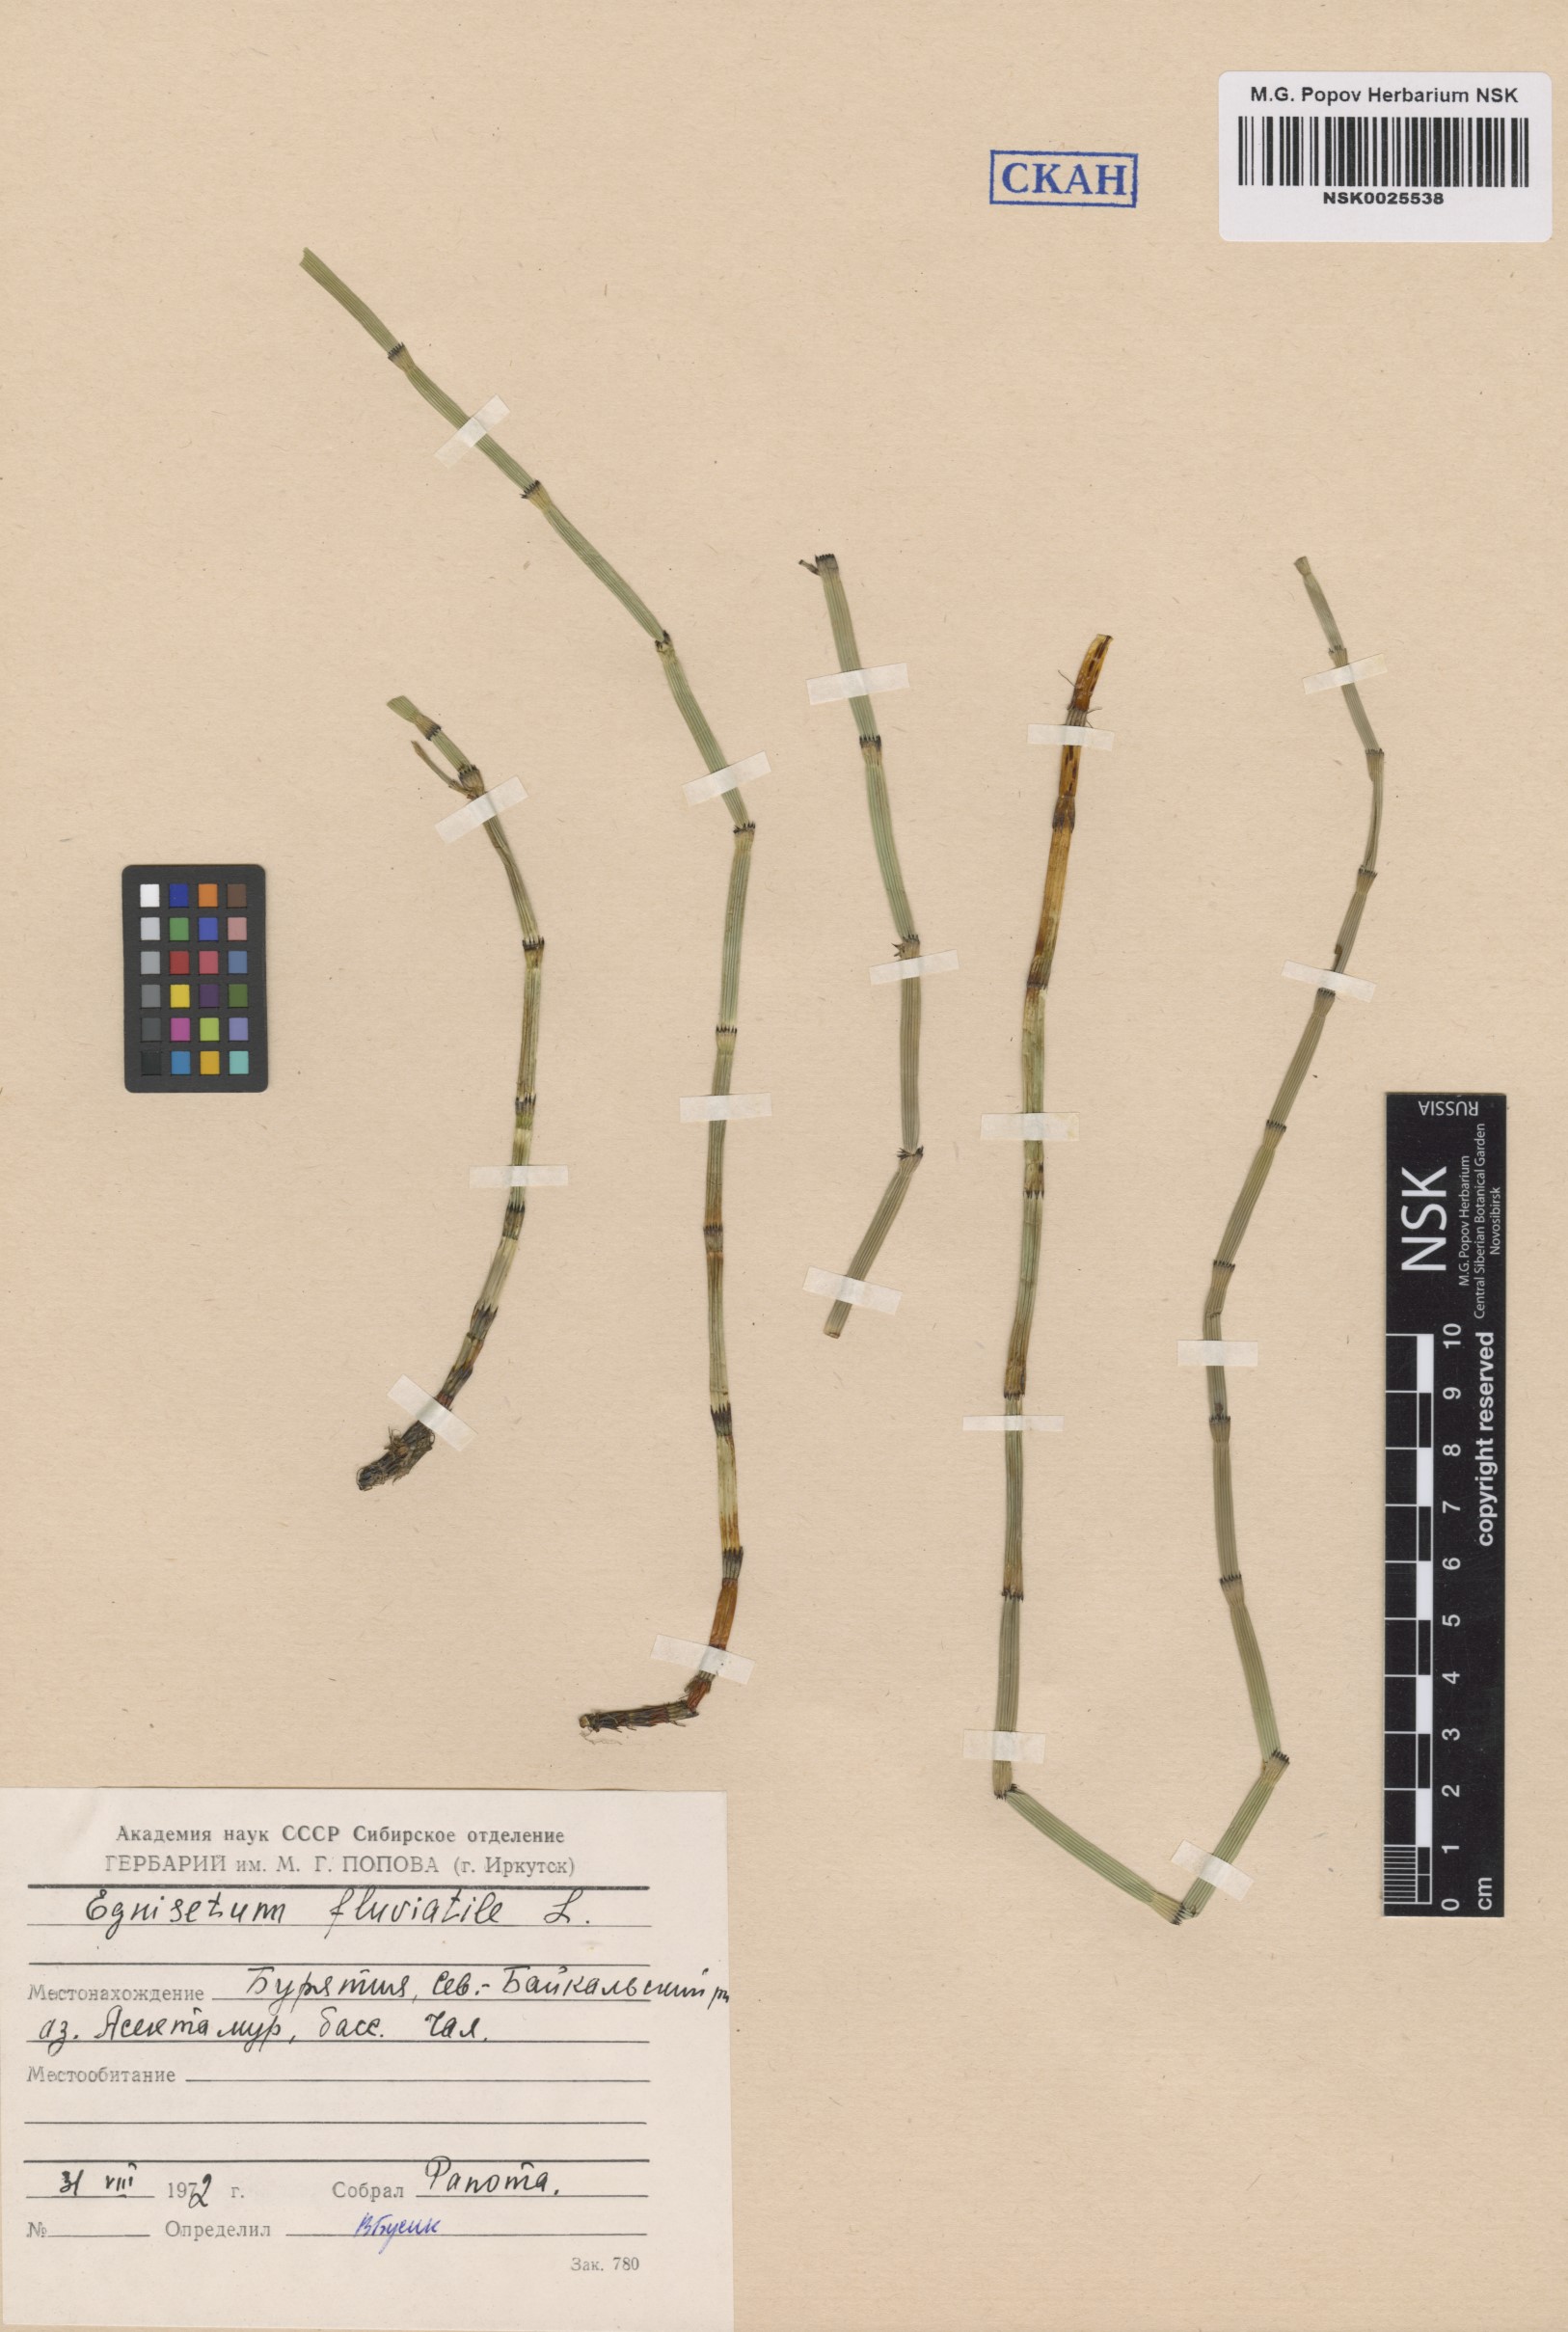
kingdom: Plantae
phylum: Tracheophyta
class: Polypodiopsida
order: Equisetales
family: Equisetaceae
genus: Equisetum
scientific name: Equisetum fluviatile
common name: Water horsetail
